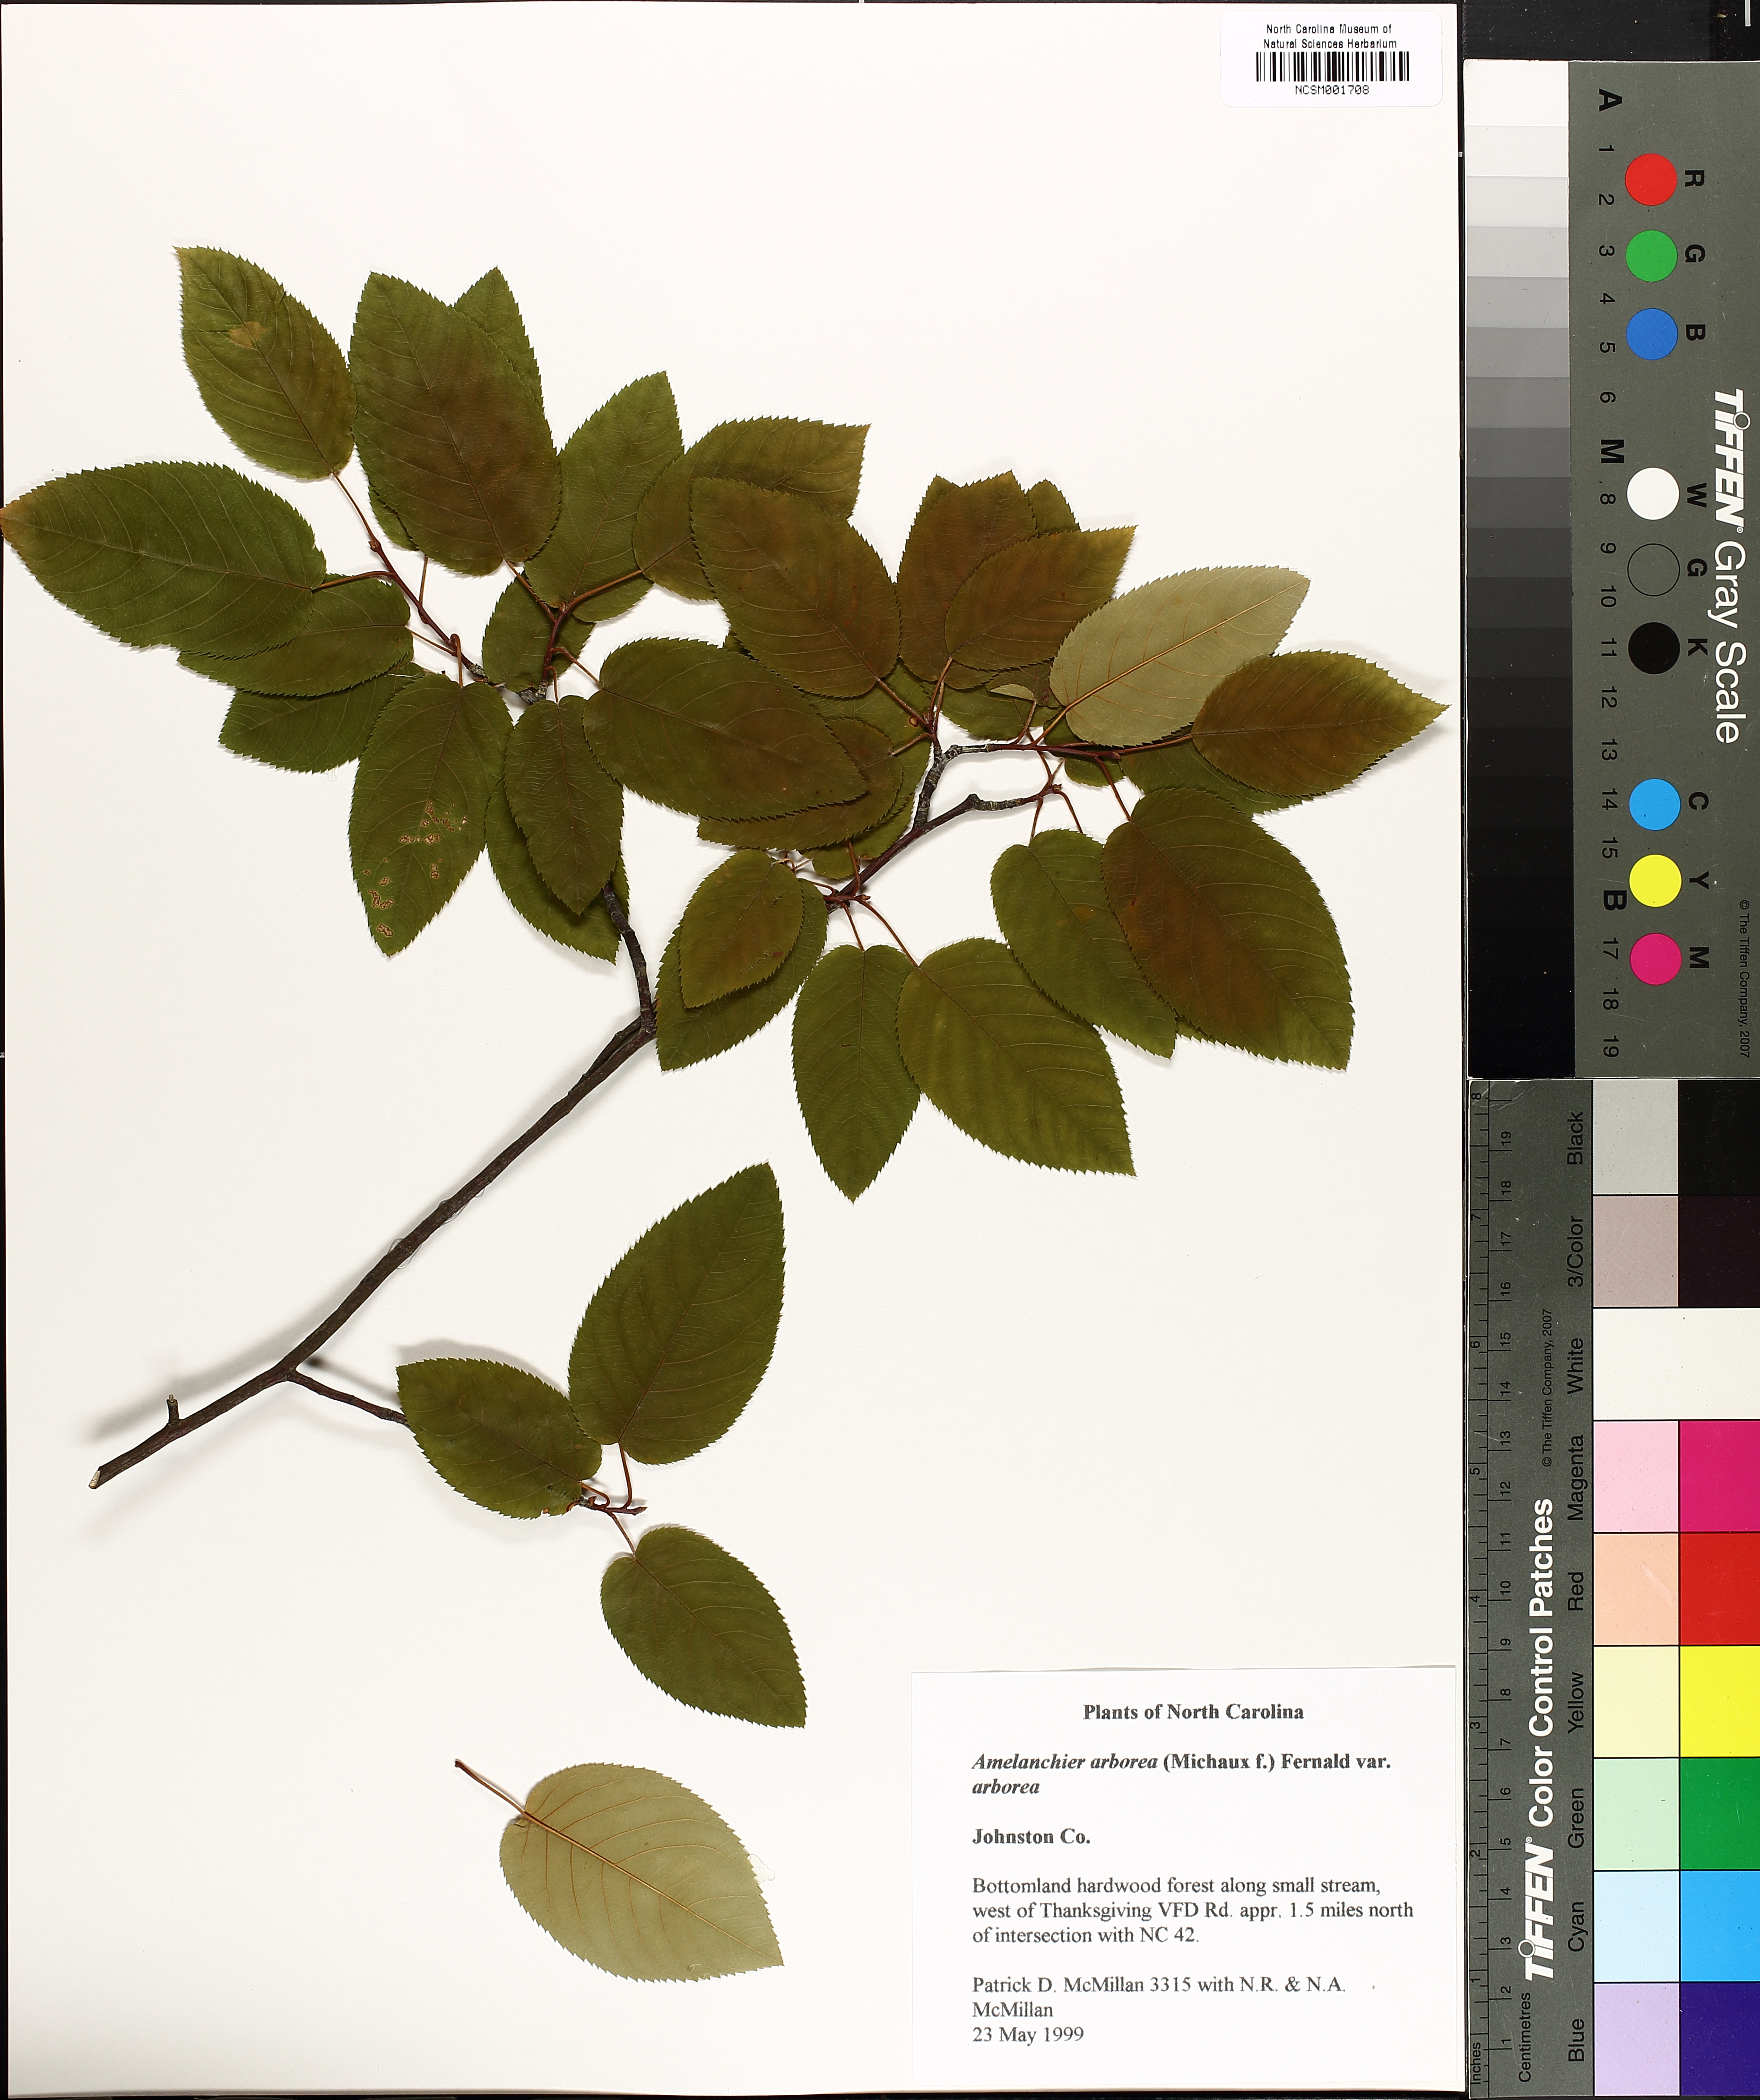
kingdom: Plantae
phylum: Tracheophyta
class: Magnoliopsida
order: Rosales
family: Rosaceae
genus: Amelanchier
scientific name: Amelanchier arborea
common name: Downy serviceberry
